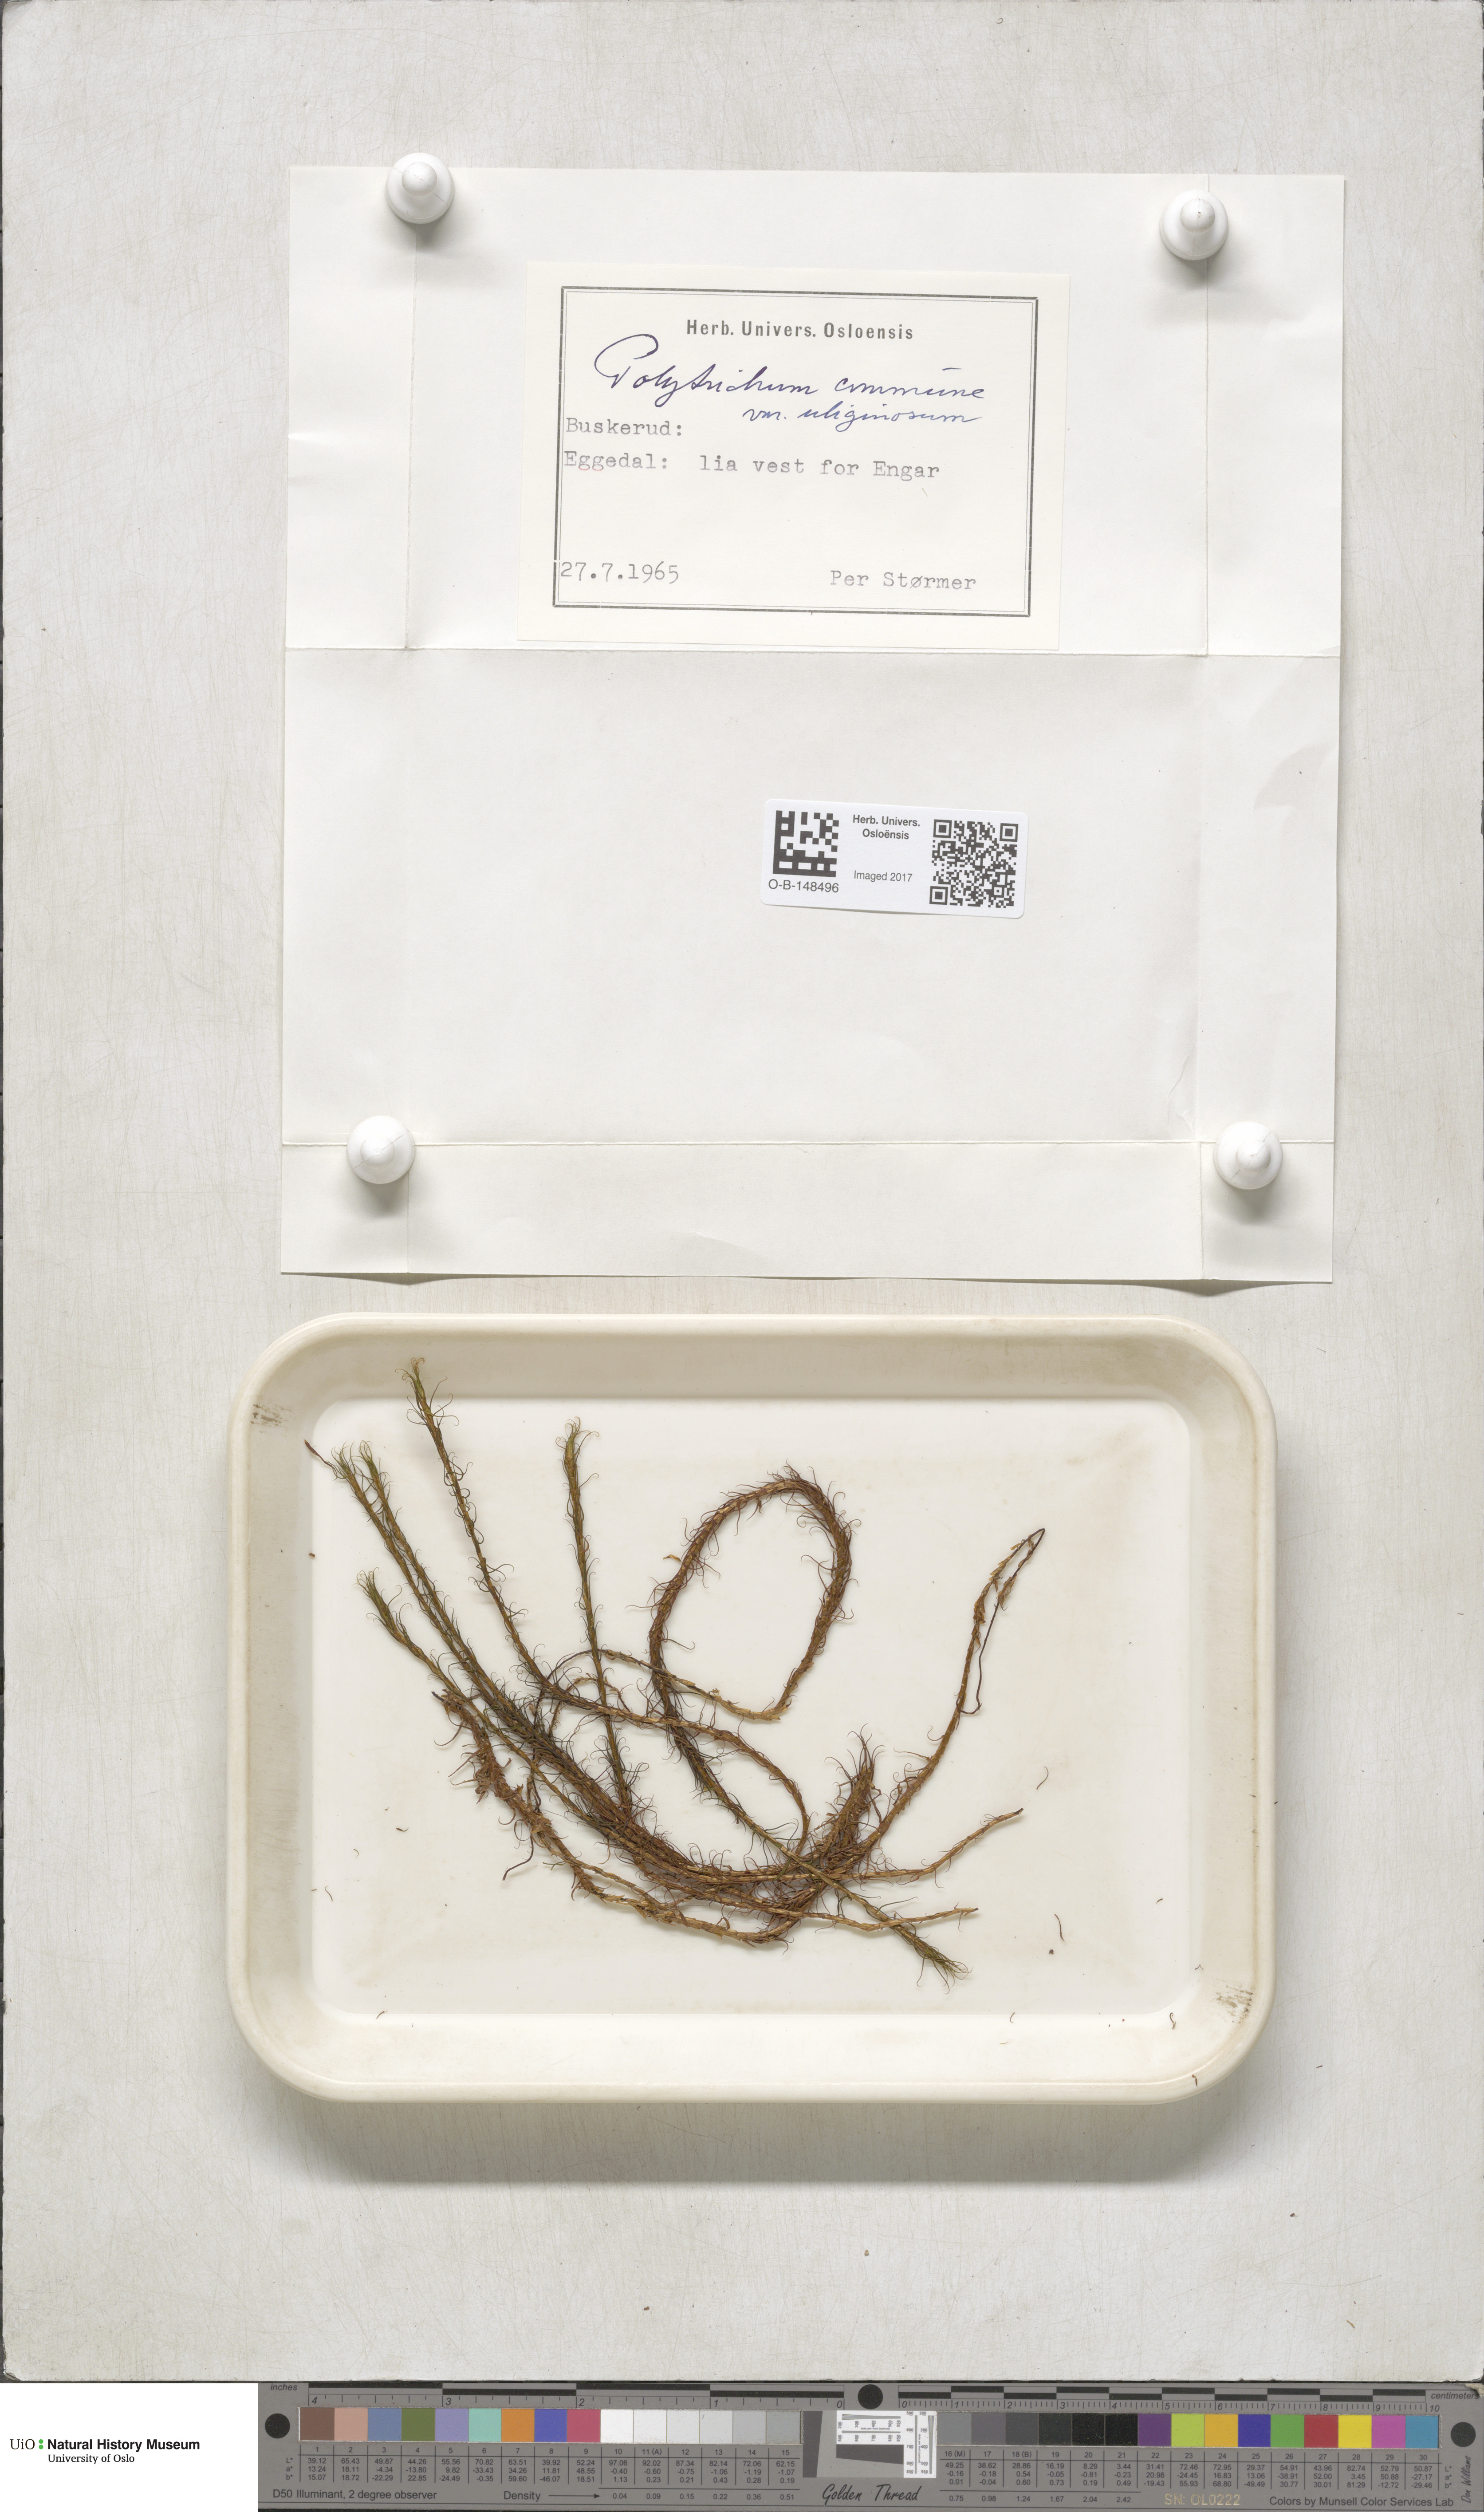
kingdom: Plantae
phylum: Bryophyta
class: Polytrichopsida
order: Polytrichales
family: Polytrichaceae
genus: Polytrichum
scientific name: Polytrichum commune
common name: Common haircap
